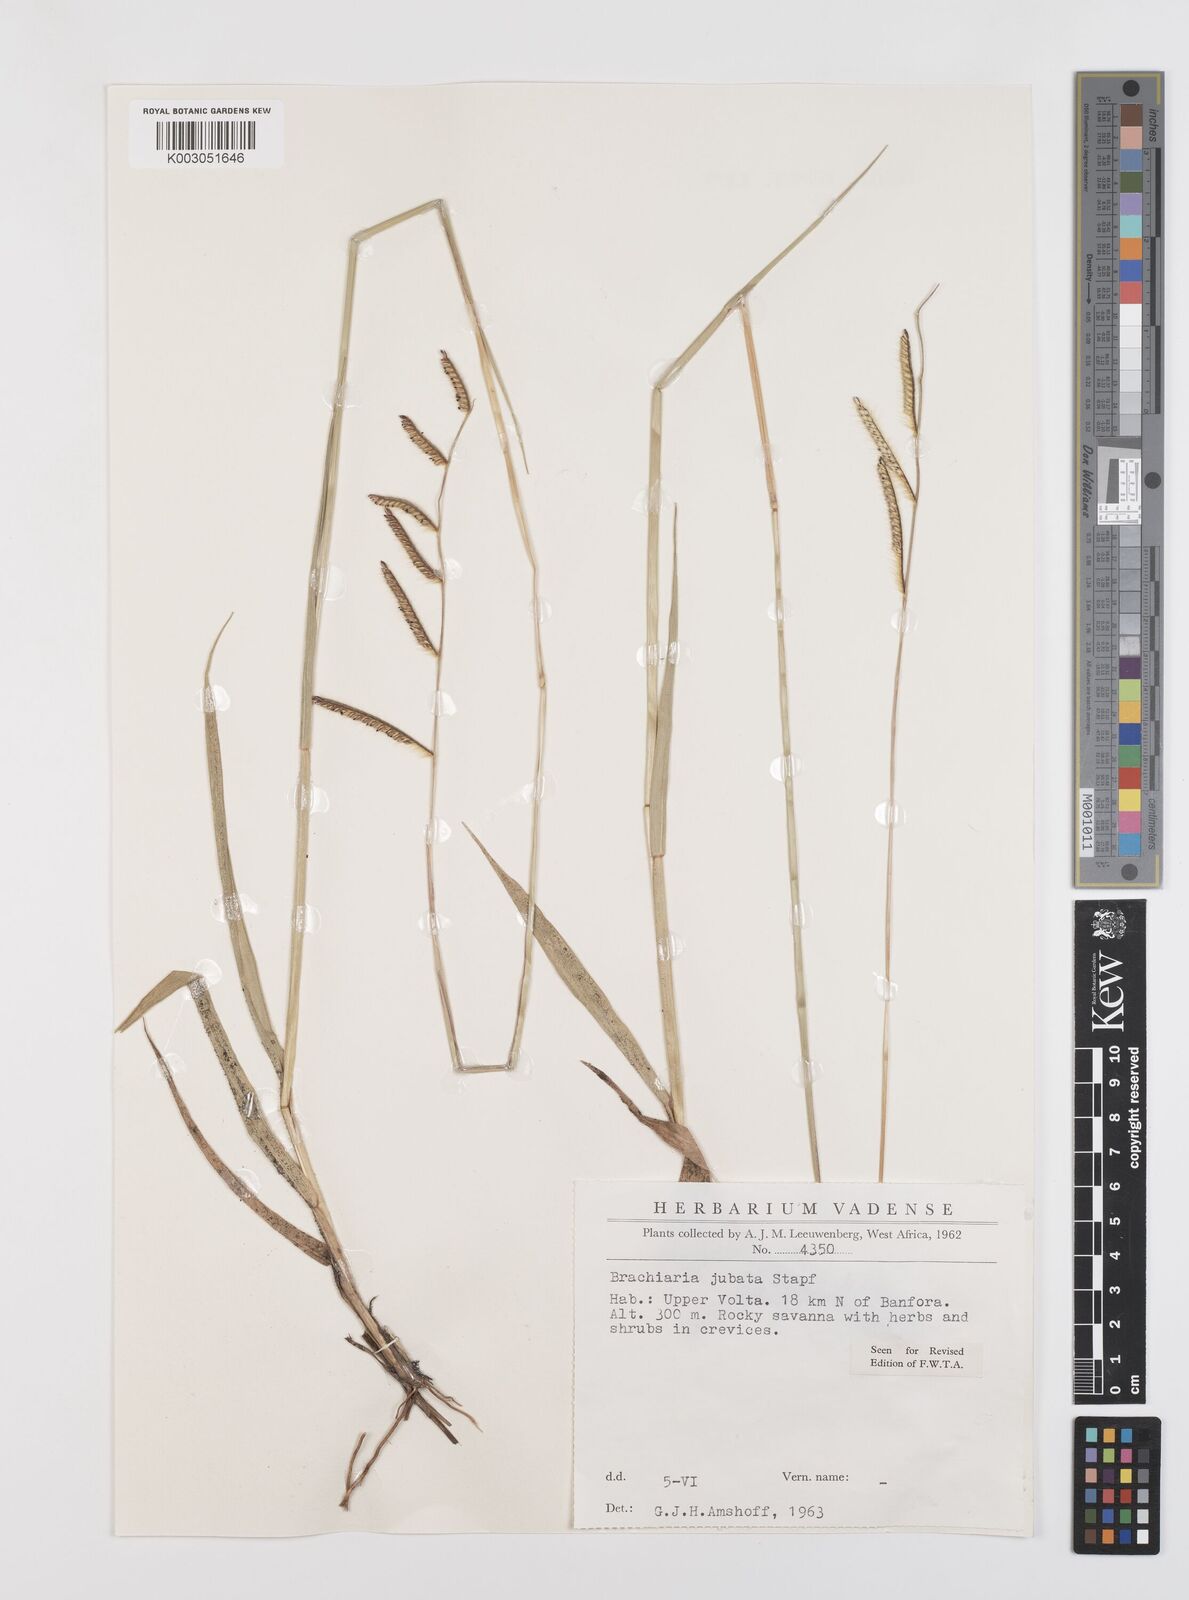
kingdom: Plantae
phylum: Tracheophyta
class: Liliopsida
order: Poales
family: Poaceae
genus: Urochloa
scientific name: Urochloa jubata
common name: Buffalograss
